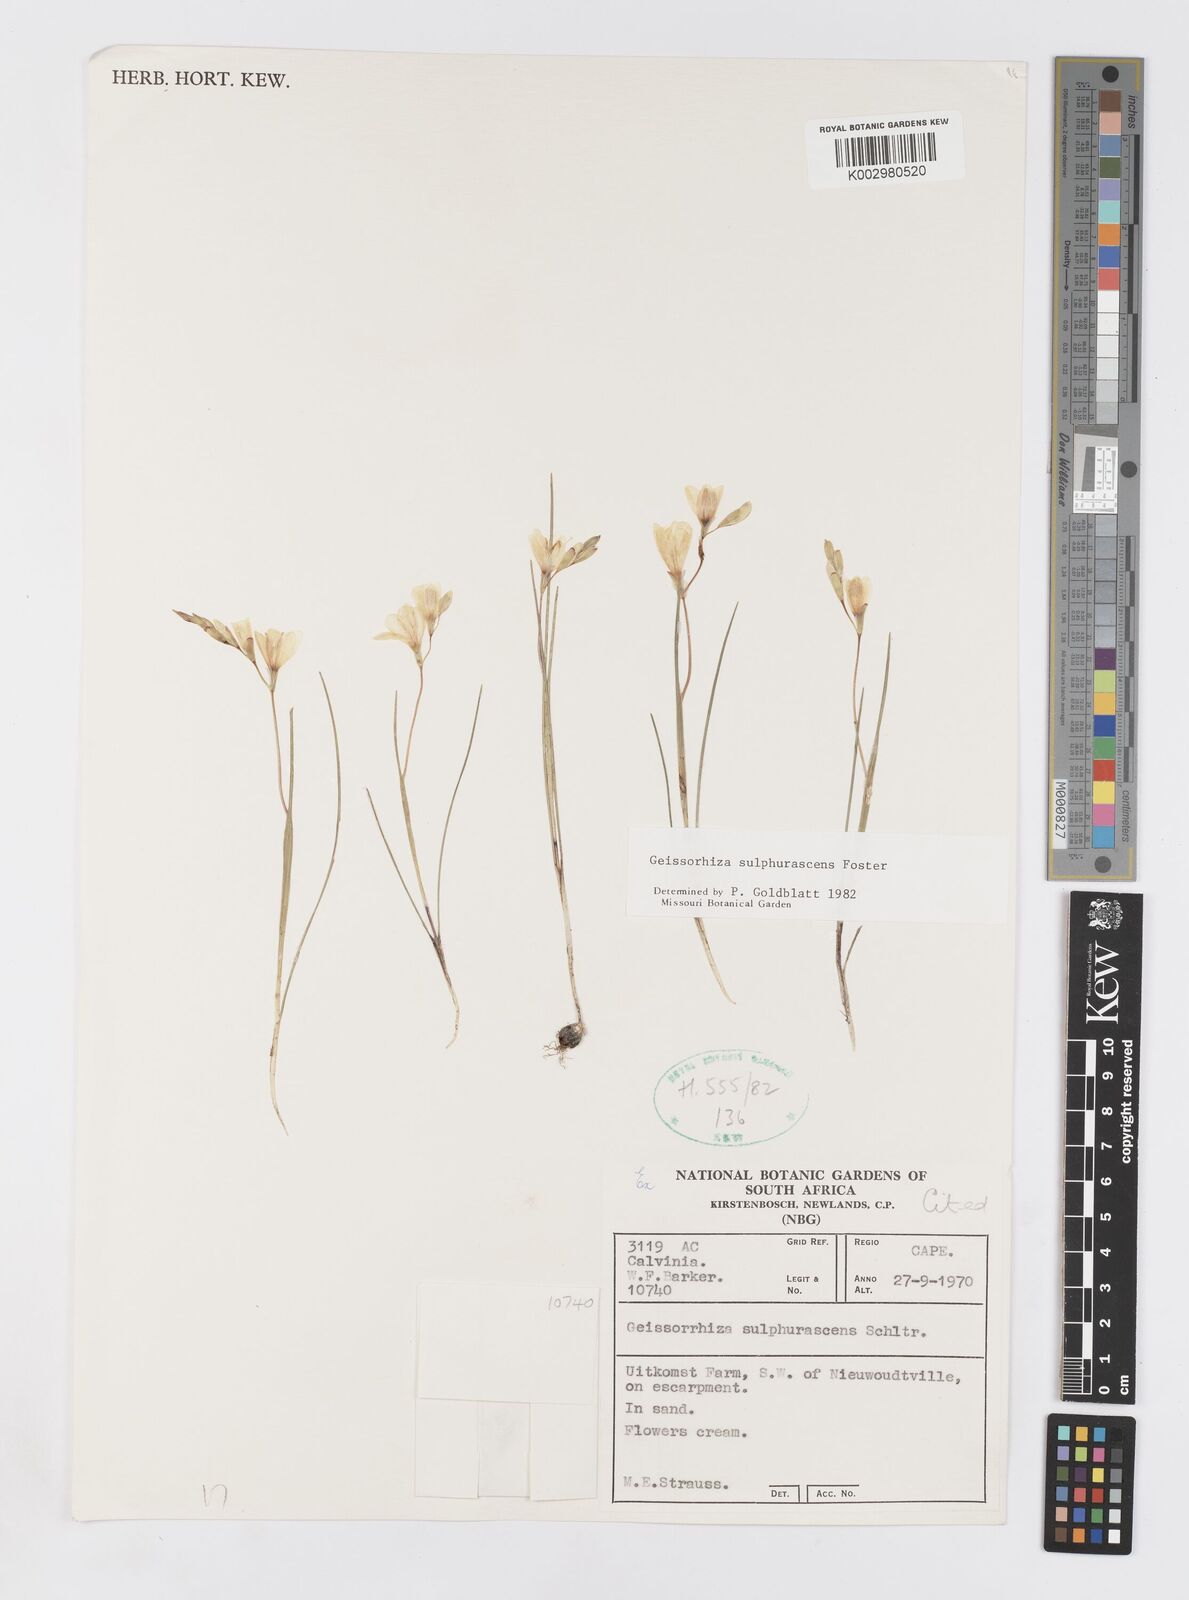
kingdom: Plantae
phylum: Tracheophyta
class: Liliopsida
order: Asparagales
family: Iridaceae
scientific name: Iridaceae
